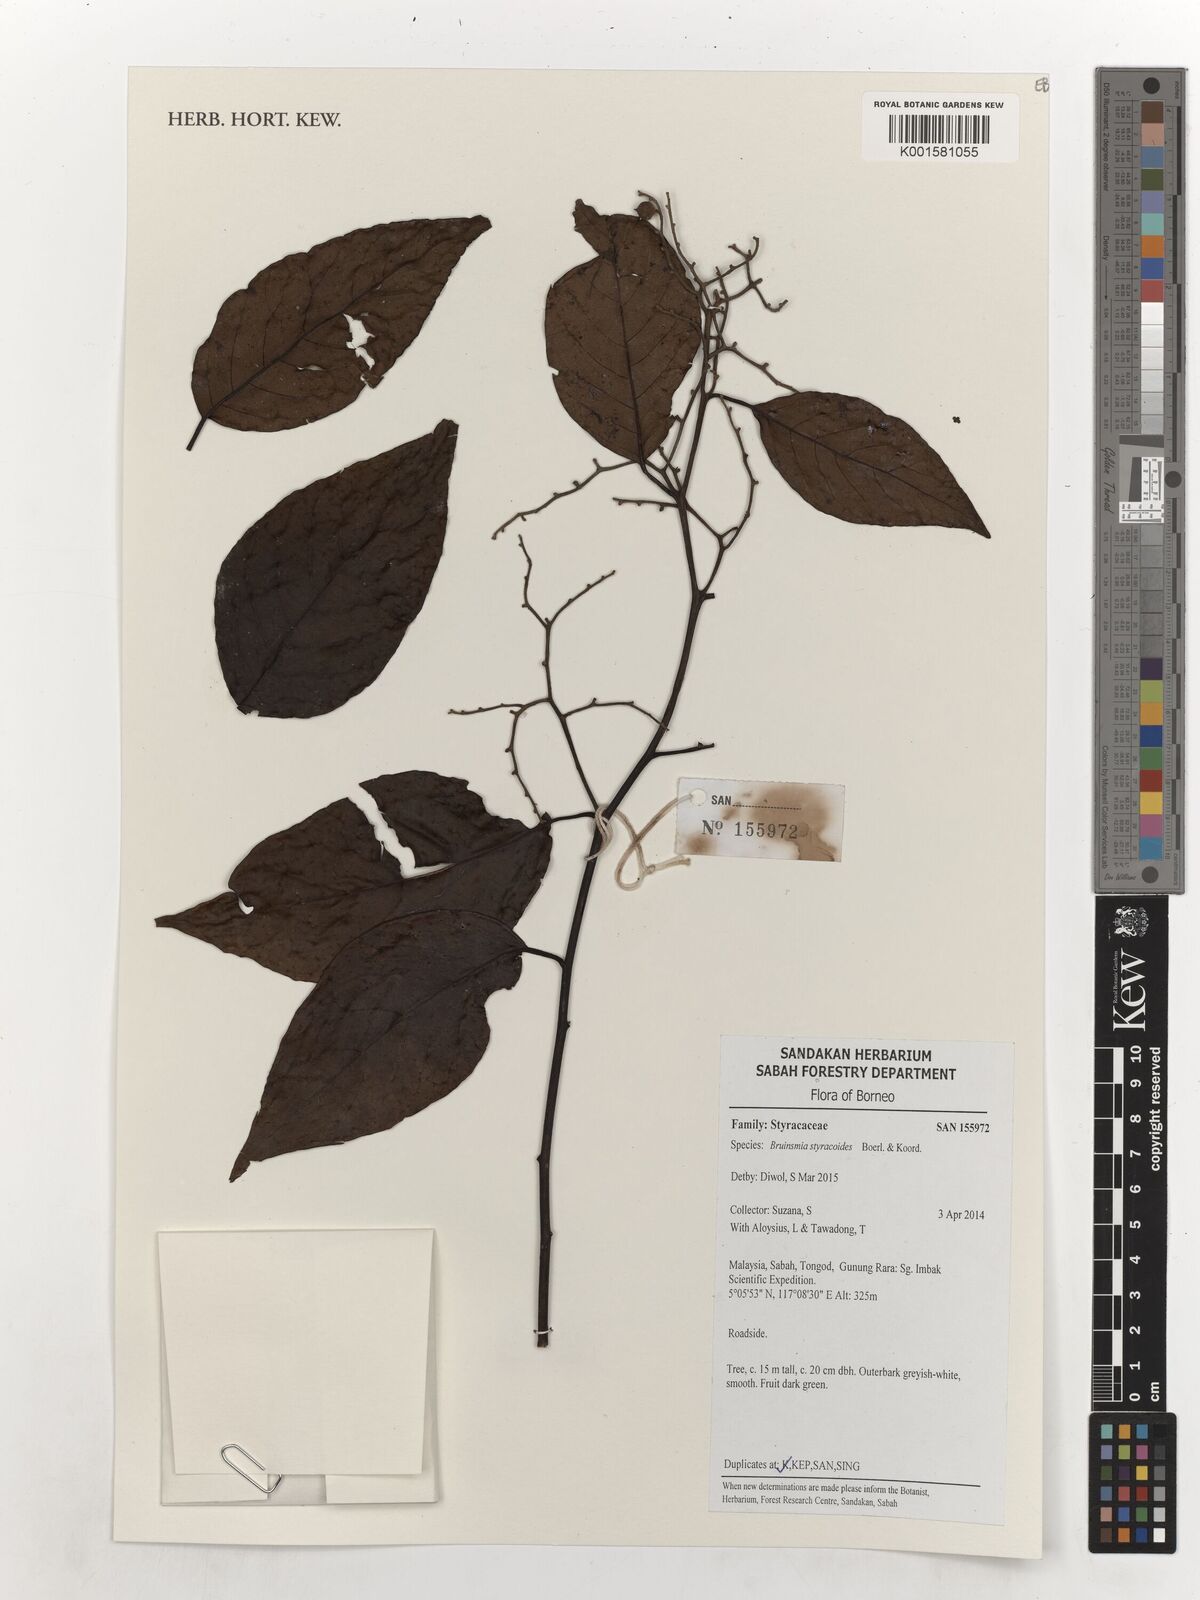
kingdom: Plantae
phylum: Tracheophyta
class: Magnoliopsida
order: Ericales
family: Styracaceae
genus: Bruinsmia
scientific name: Bruinsmia styracoides
